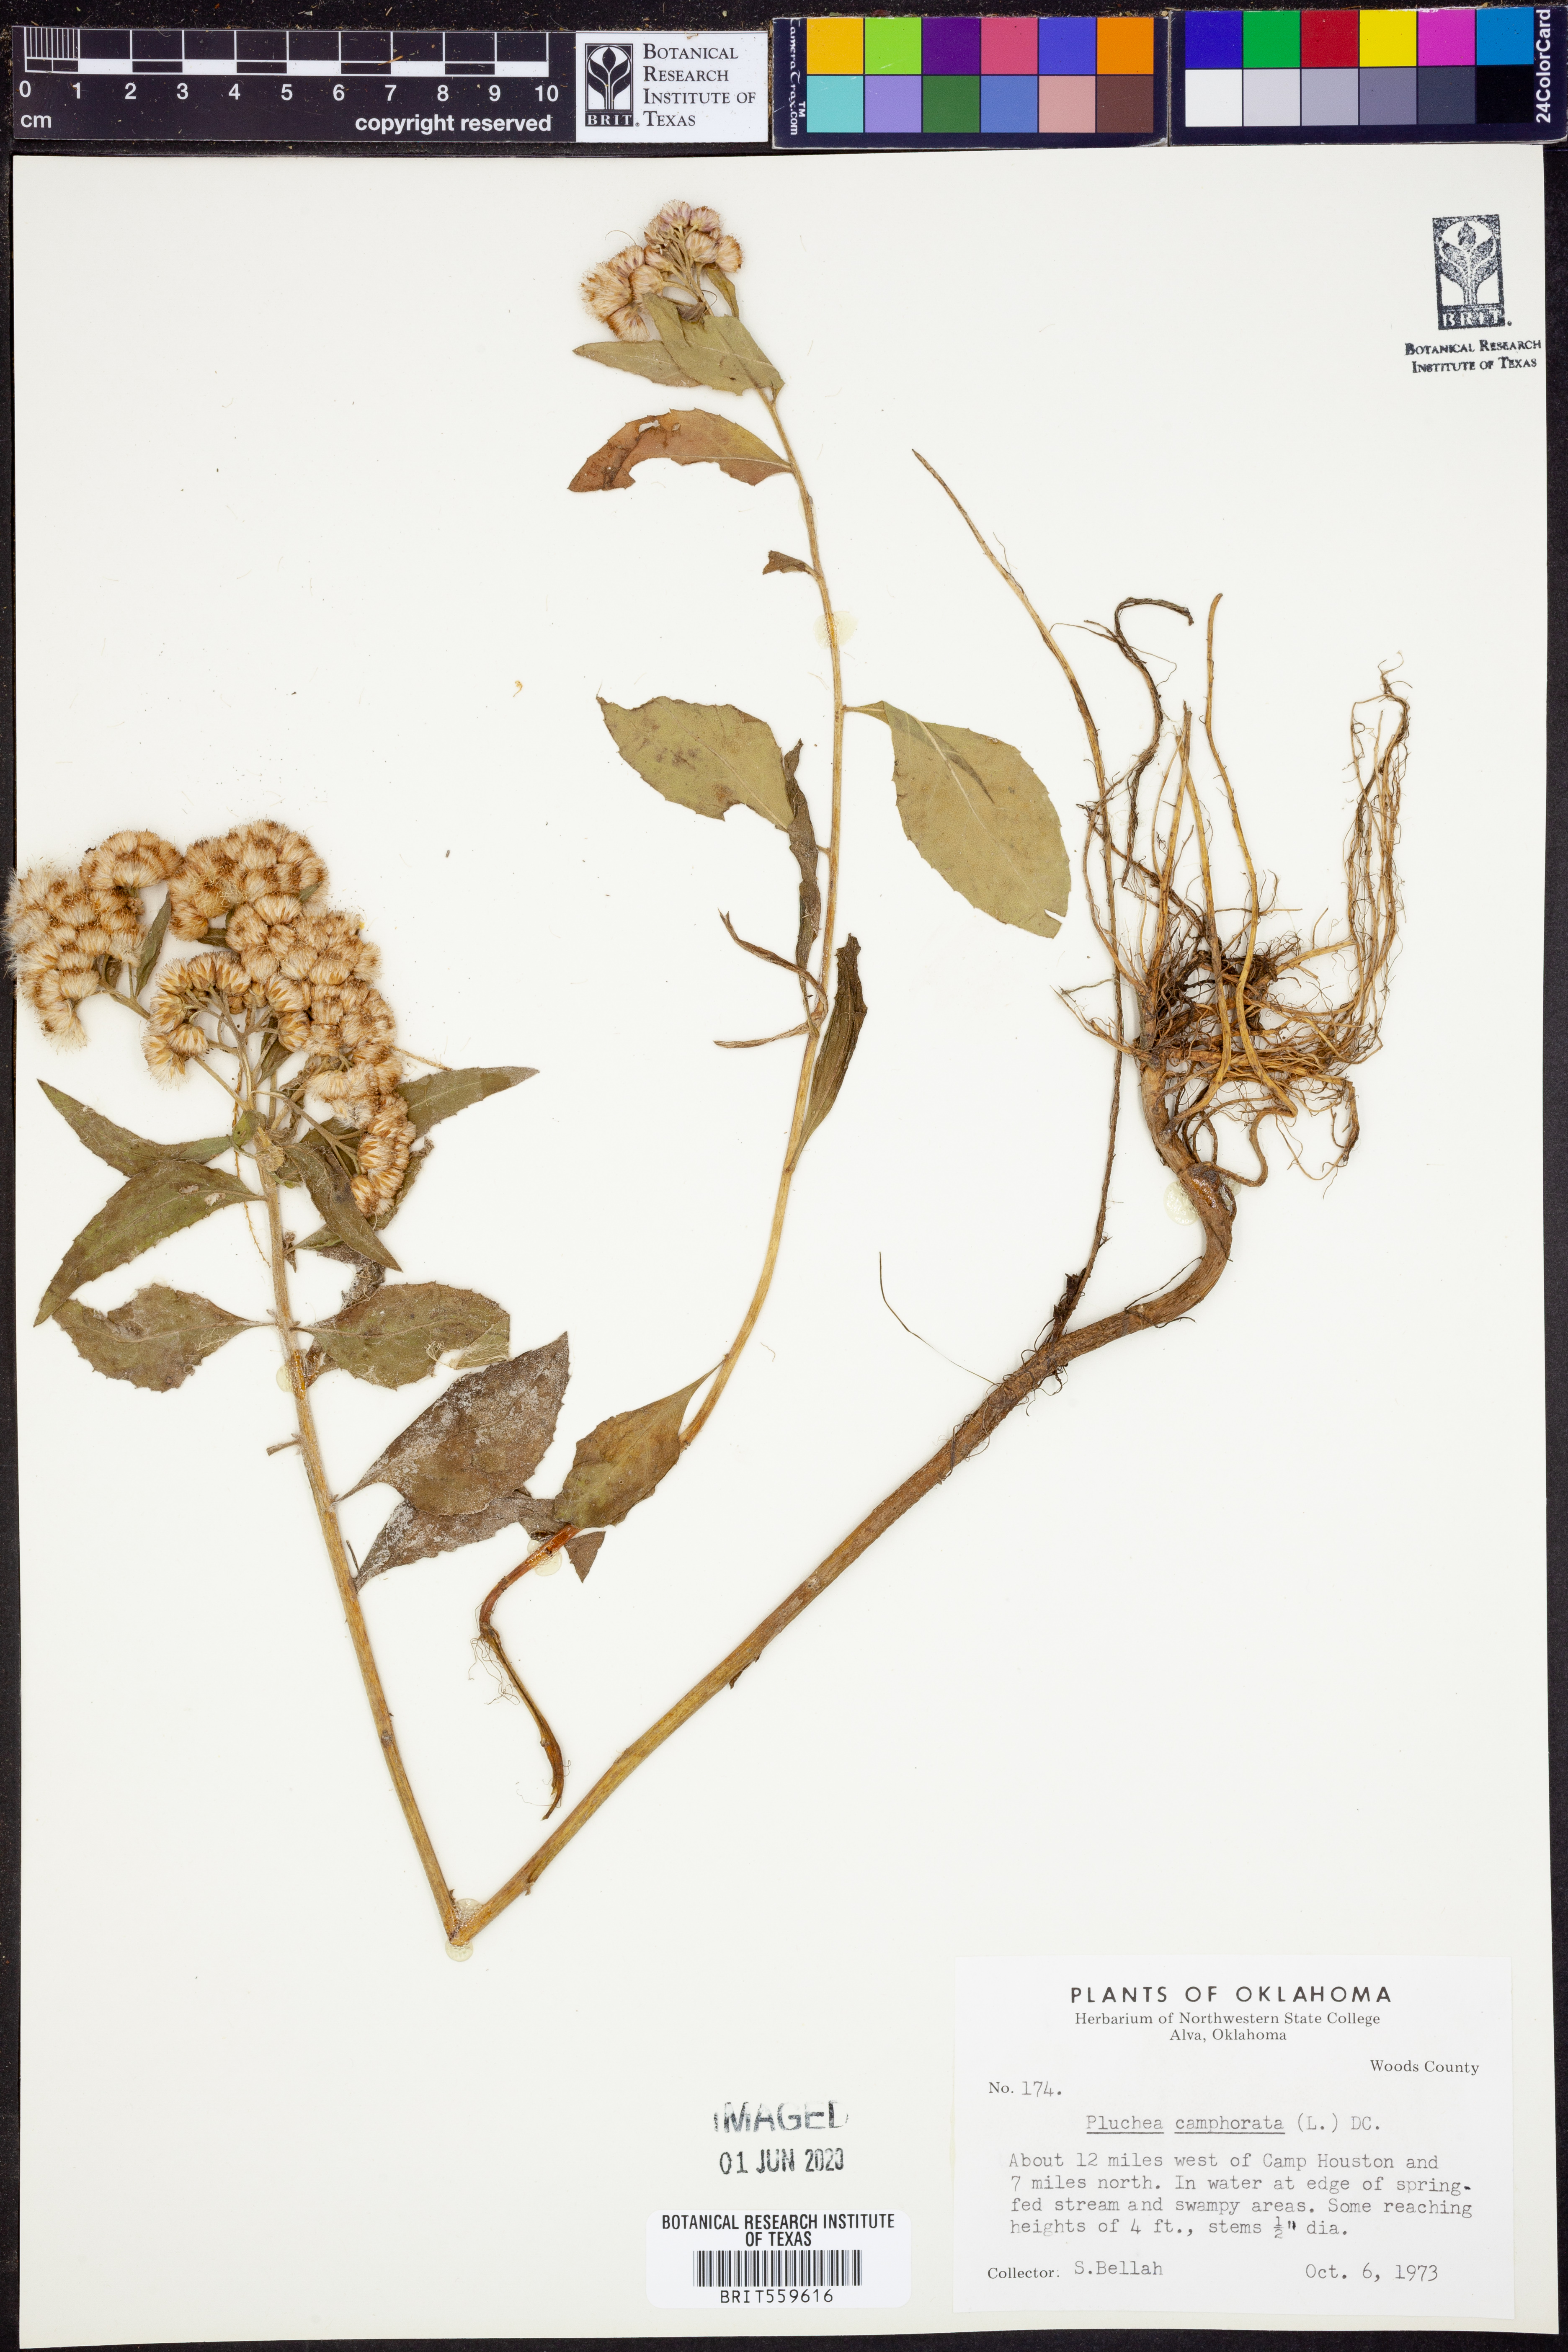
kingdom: Plantae
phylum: Tracheophyta
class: Magnoliopsida
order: Asterales
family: Asteraceae
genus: Pluchea
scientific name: Pluchea camphorata
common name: Camphor pluchea
